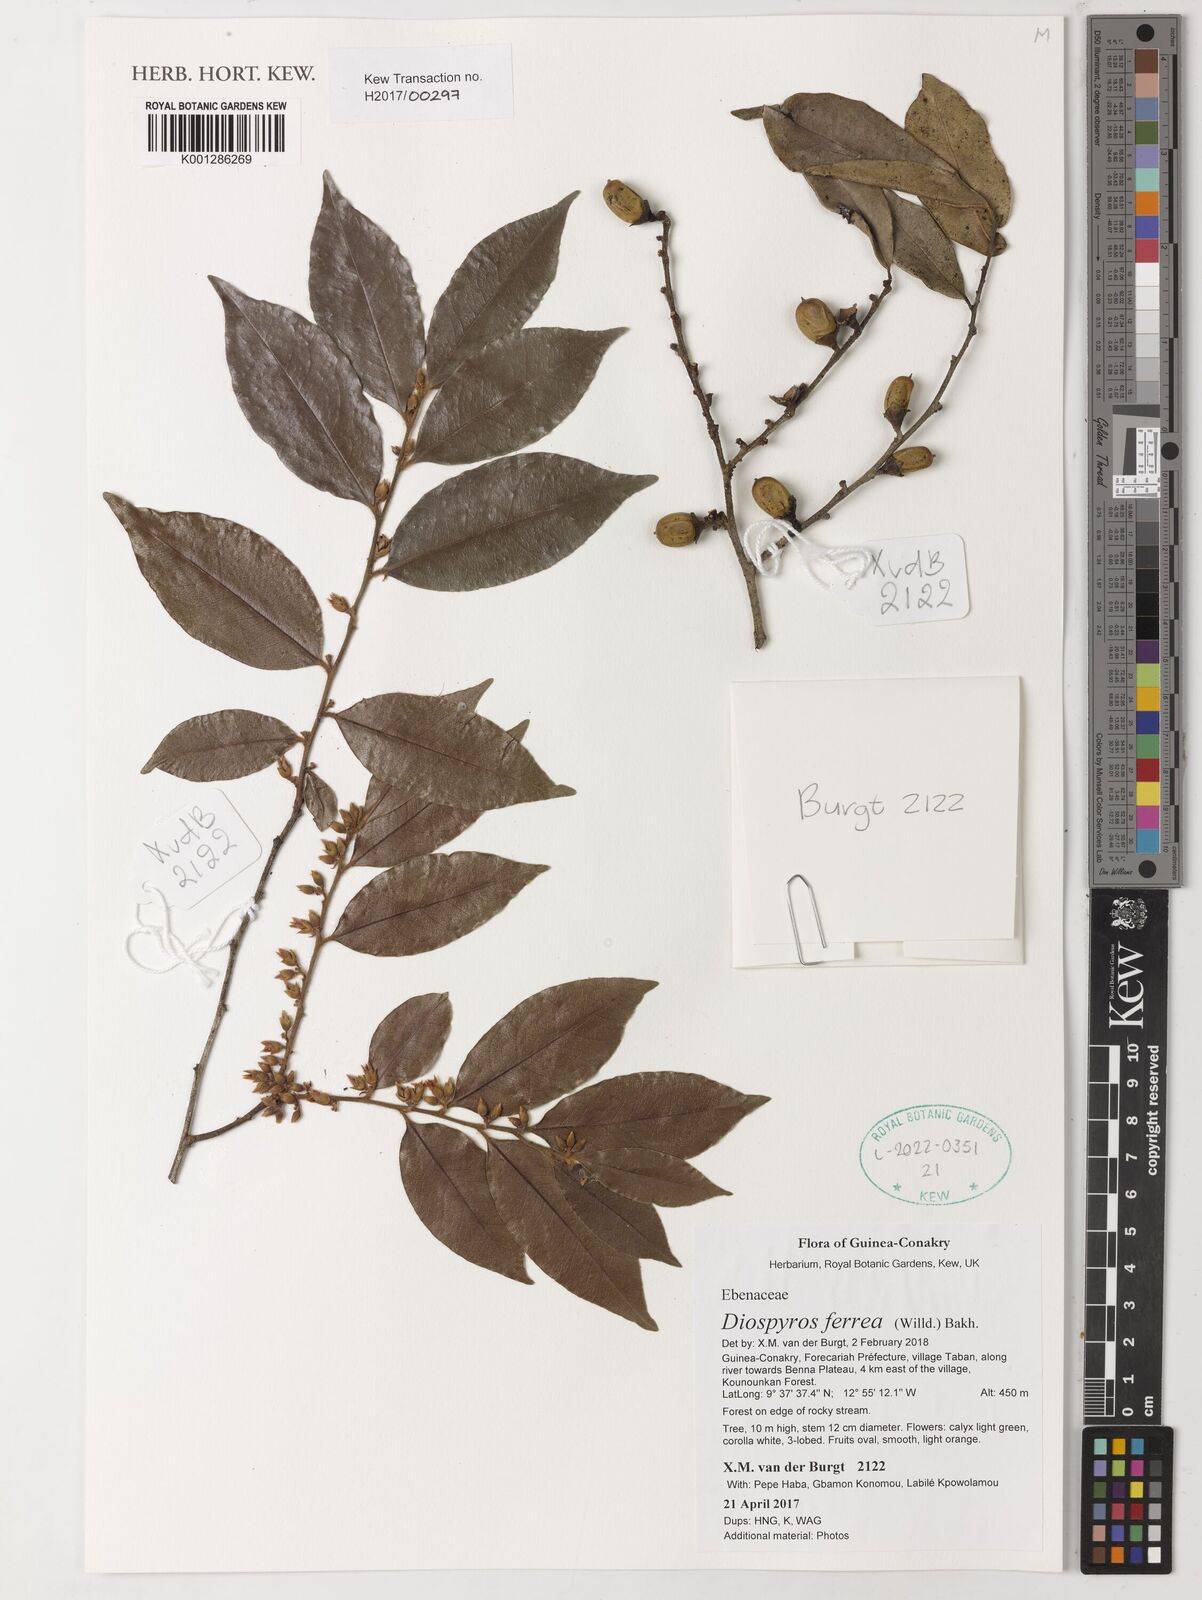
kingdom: Plantae
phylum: Tracheophyta
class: Magnoliopsida
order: Ericales
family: Ebenaceae
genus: Diospyros
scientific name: Diospyros ferrea
